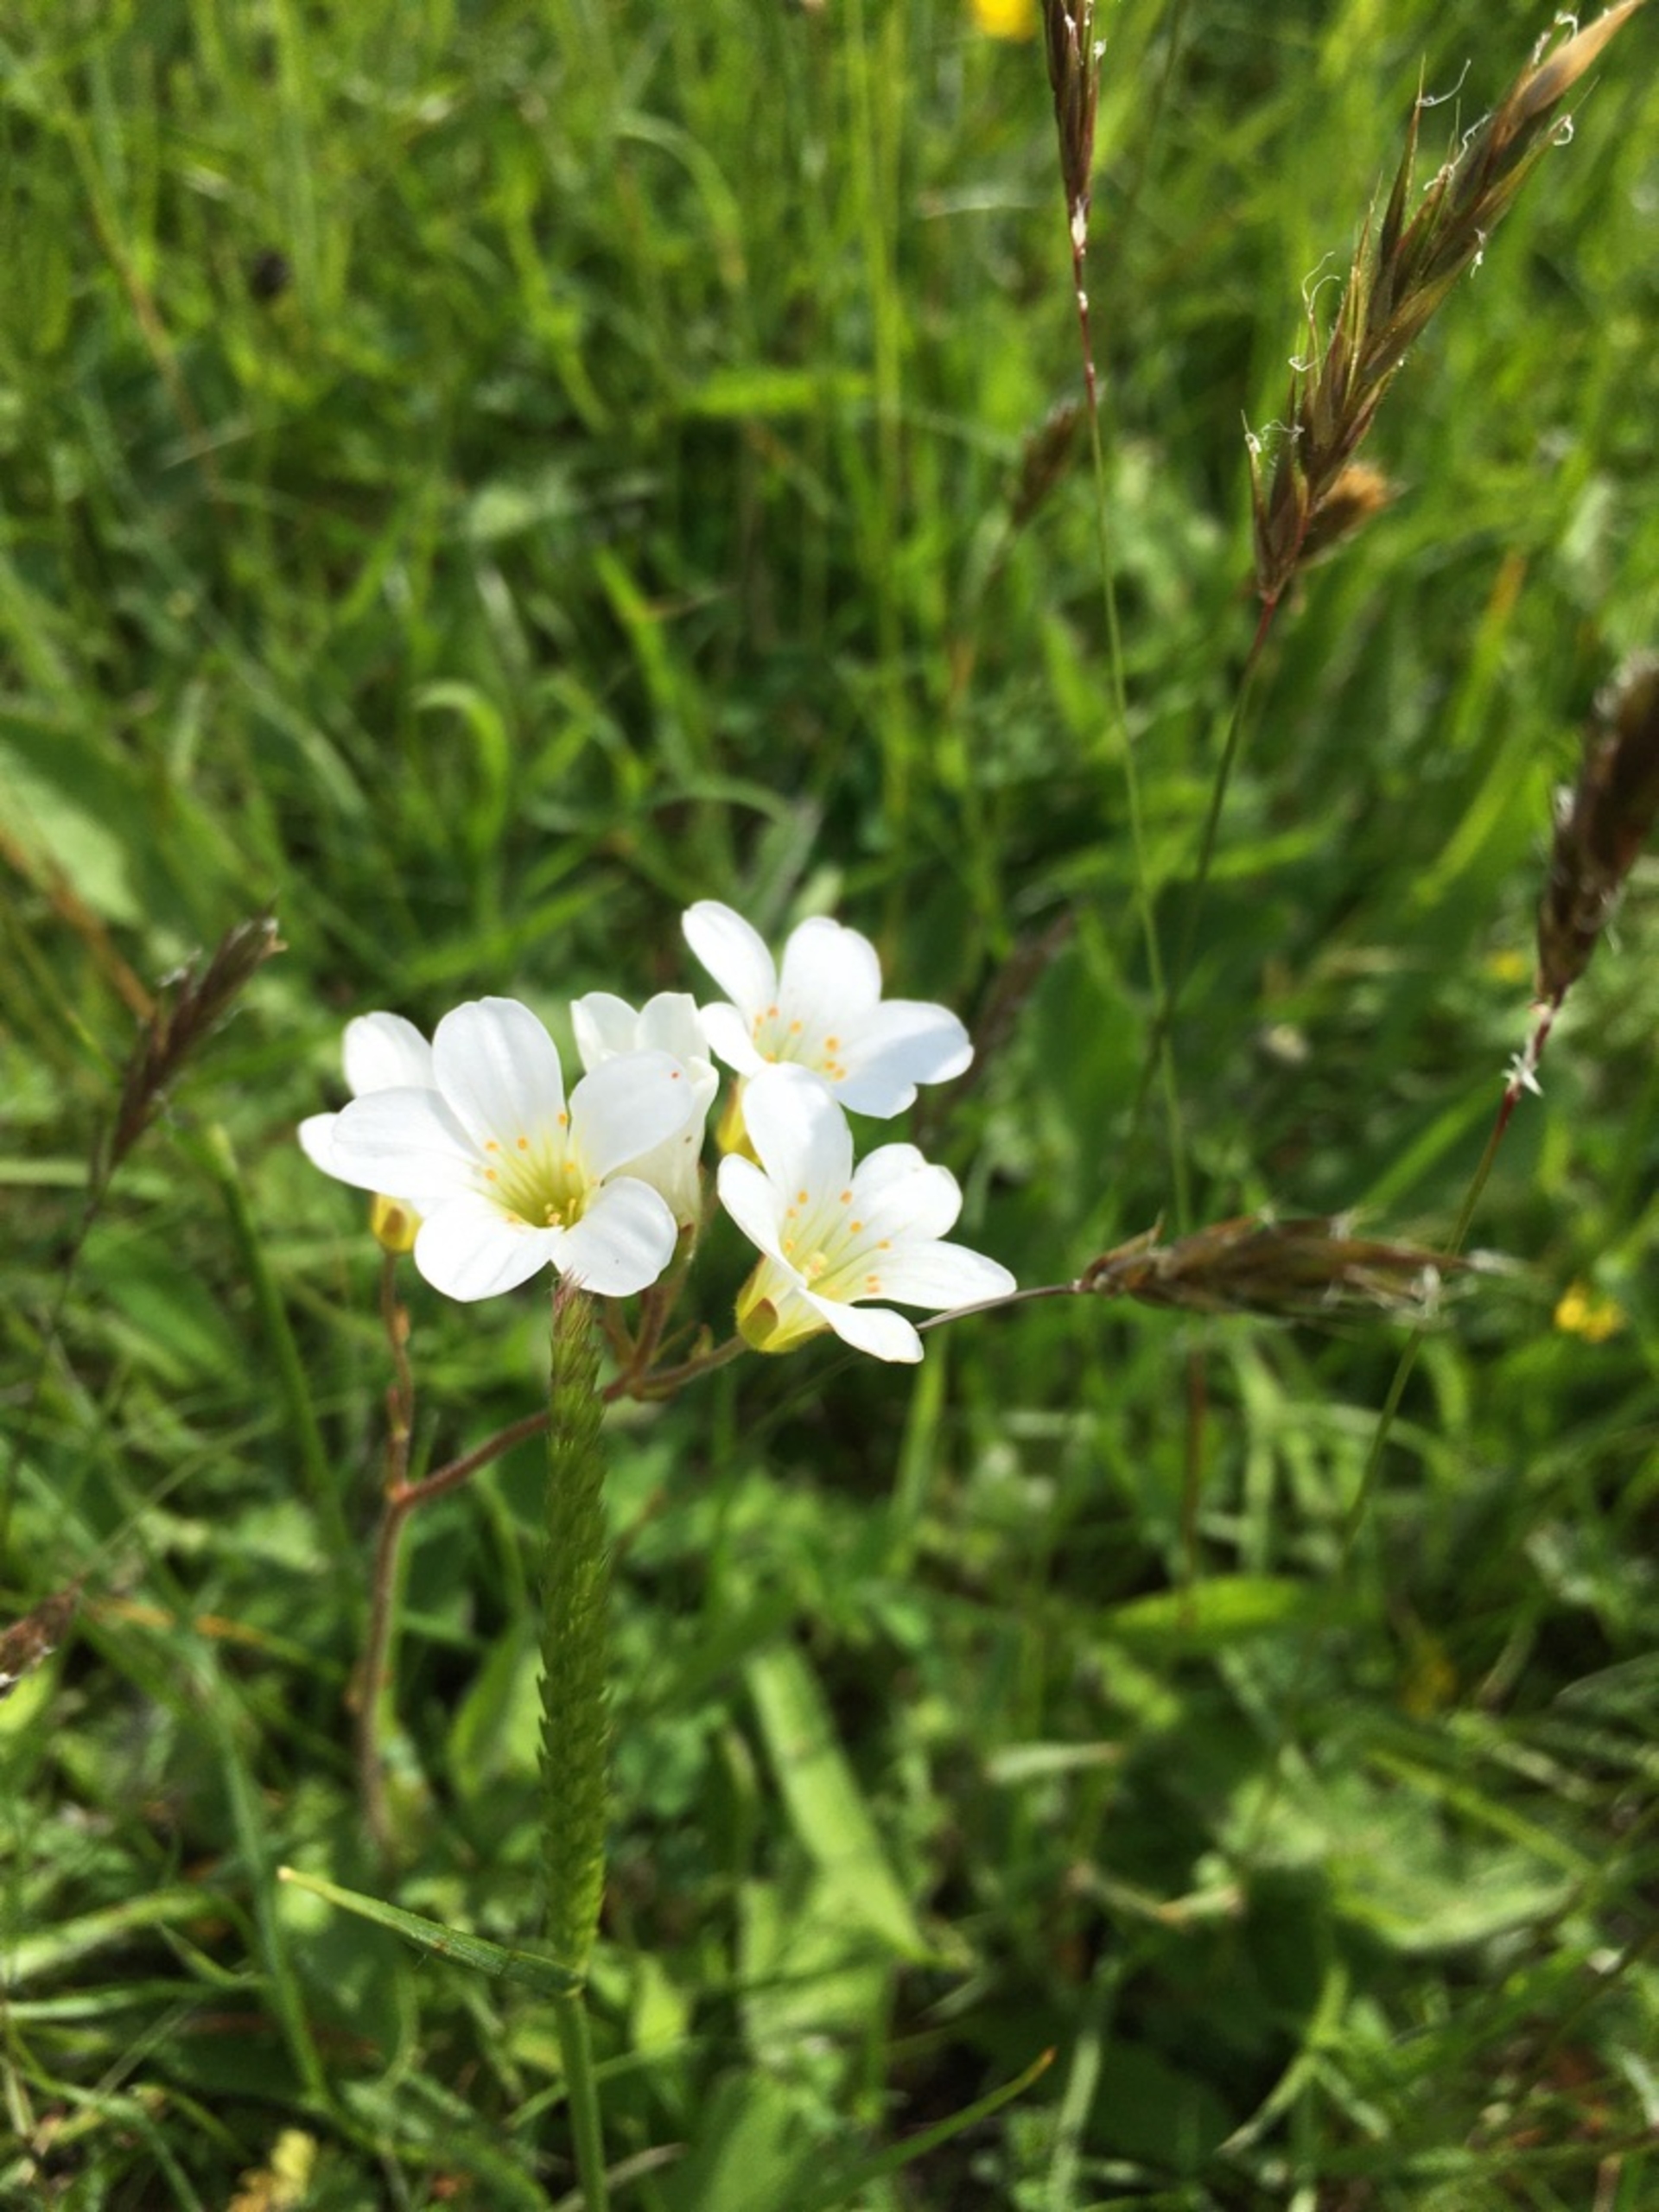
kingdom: Plantae
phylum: Tracheophyta
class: Magnoliopsida
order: Saxifragales
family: Saxifragaceae
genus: Saxifraga
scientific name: Saxifraga granulata
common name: Kornet stenbræk
